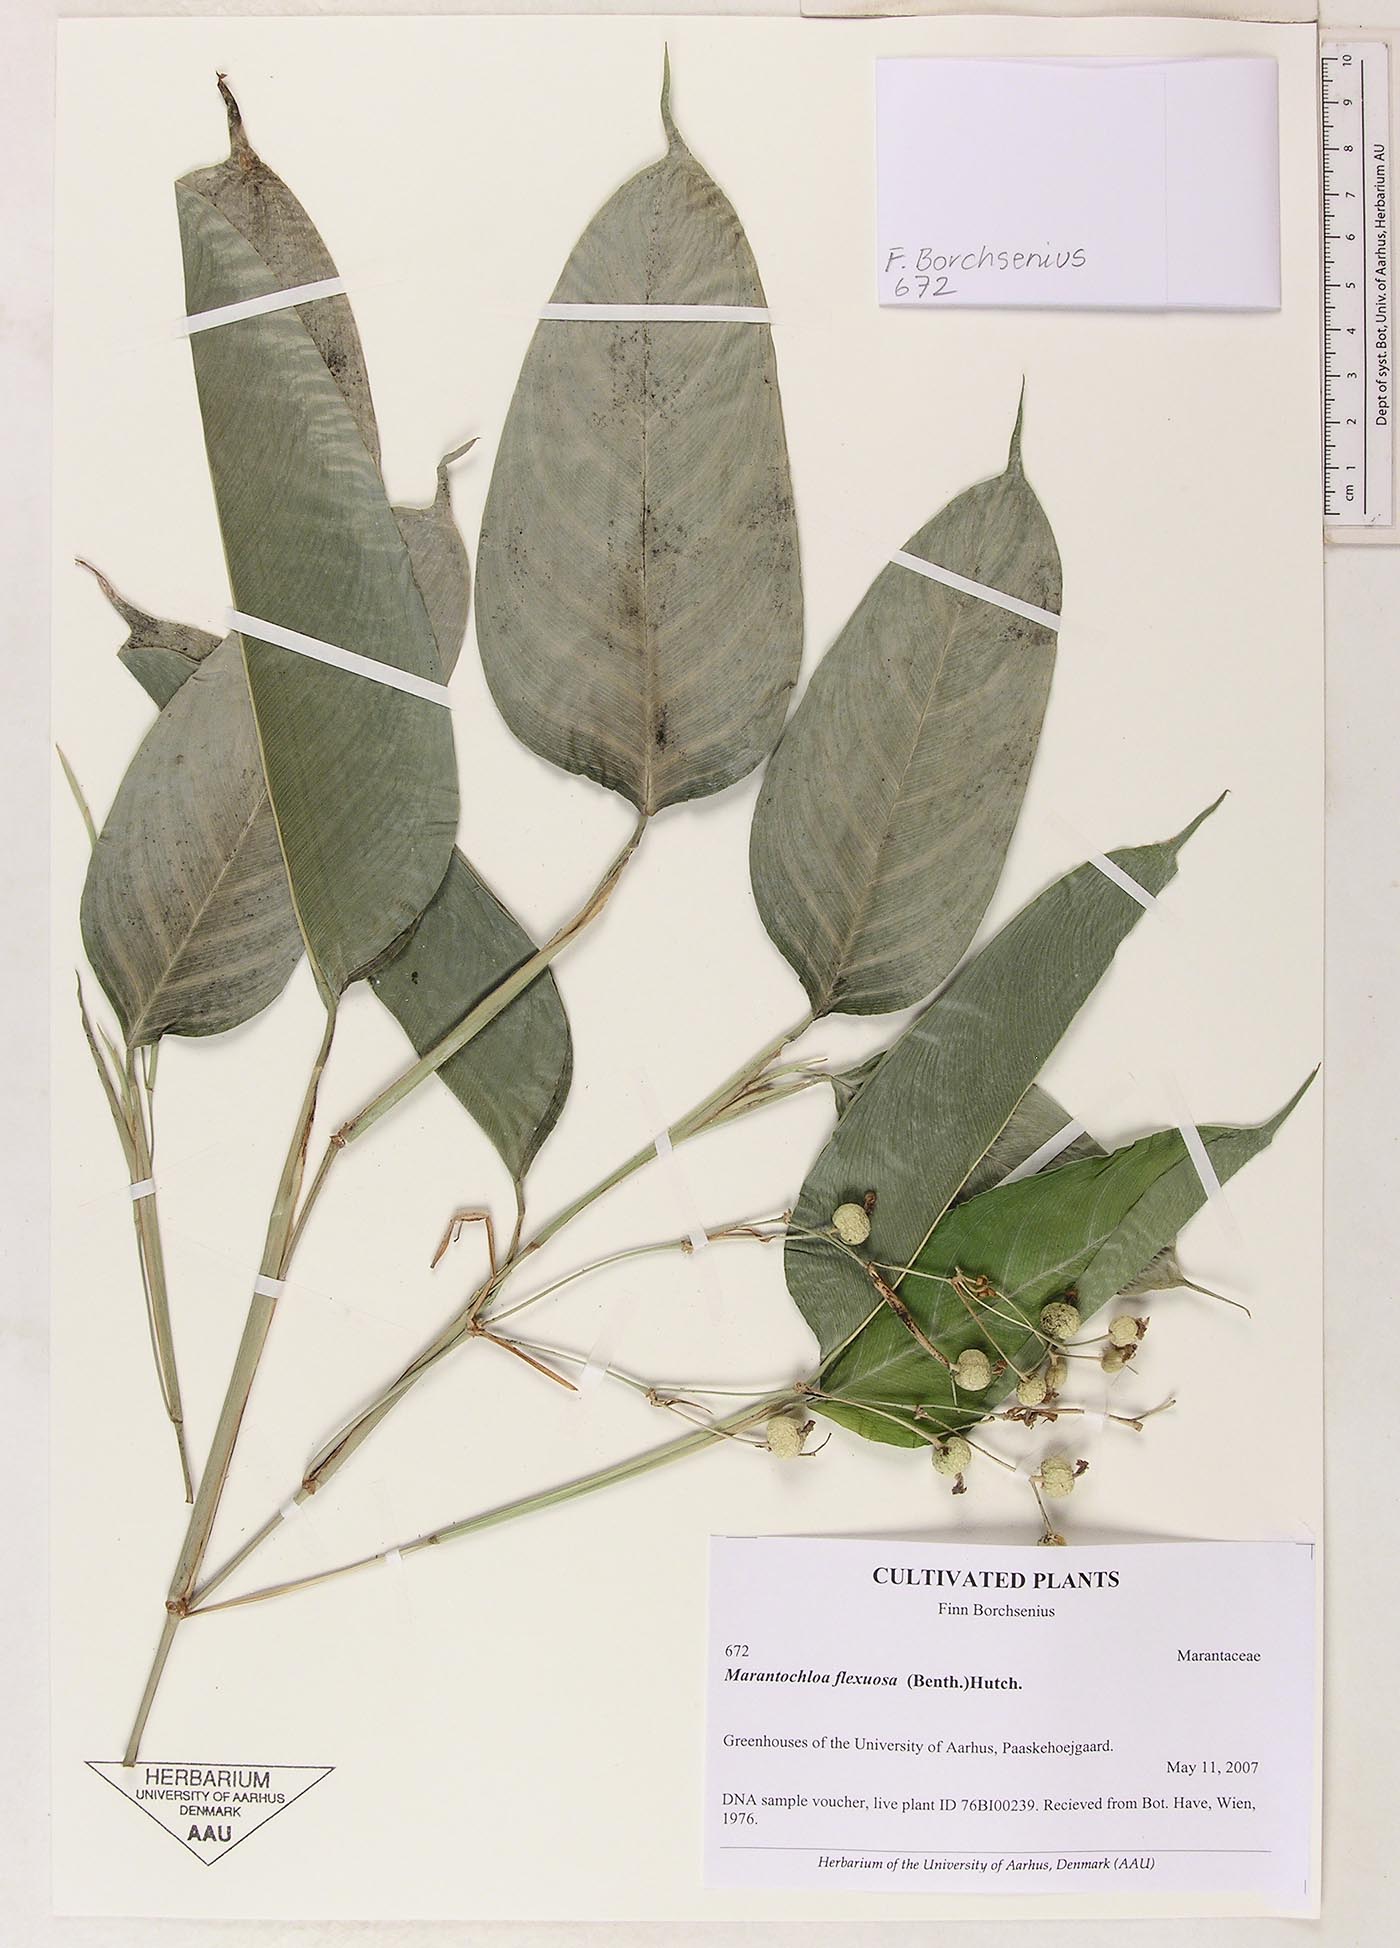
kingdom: Plantae
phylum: Tracheophyta
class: Liliopsida
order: Zingiberales
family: Marantaceae
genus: Marantochloa
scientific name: Marantochloa cuspidata
